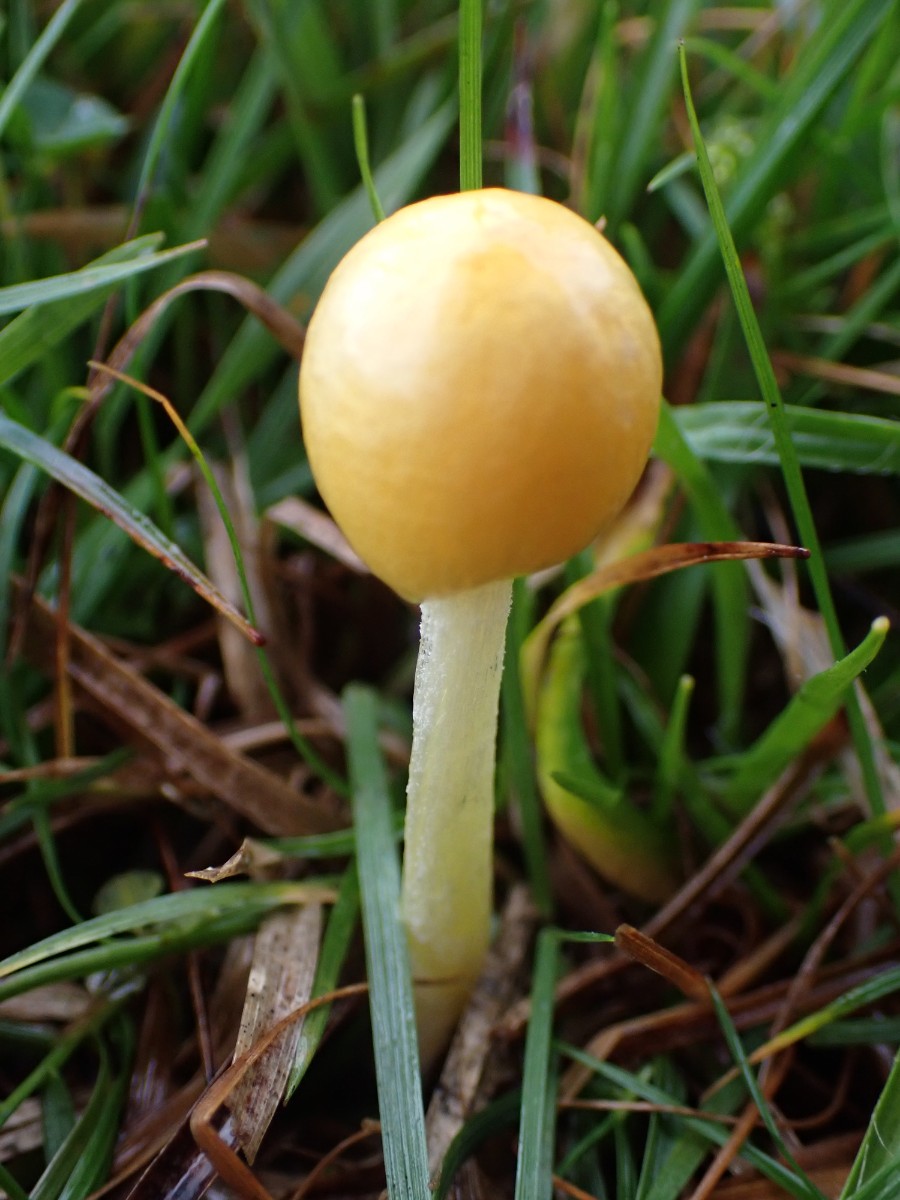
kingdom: Fungi
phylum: Basidiomycota
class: Agaricomycetes
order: Agaricales
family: Bolbitiaceae
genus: Bolbitius
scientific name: Bolbitius titubans
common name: almindelig gulhat
